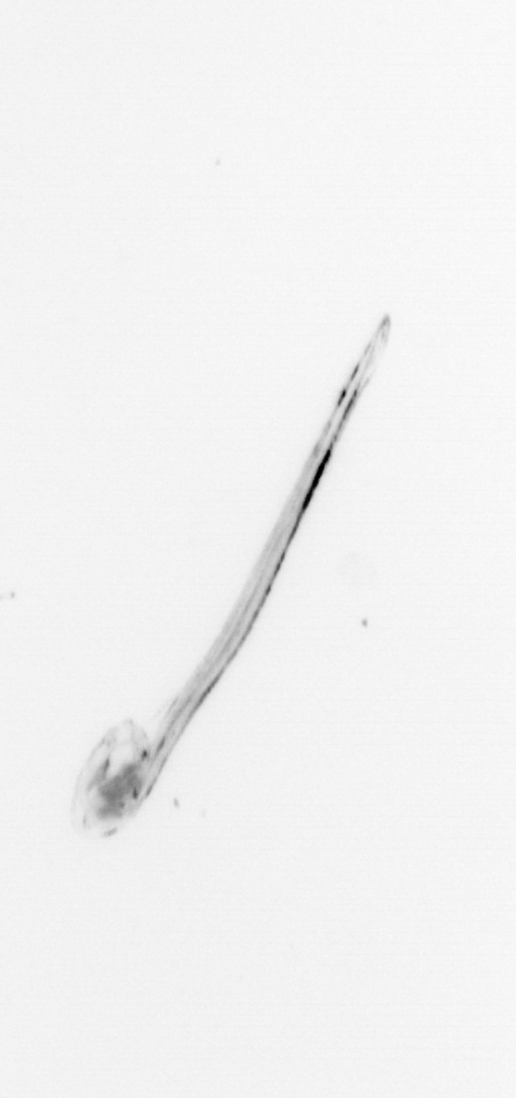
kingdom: Animalia
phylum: Chordata
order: Copelata
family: Fritillariidae
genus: Appendicularia
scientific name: Appendicularia
